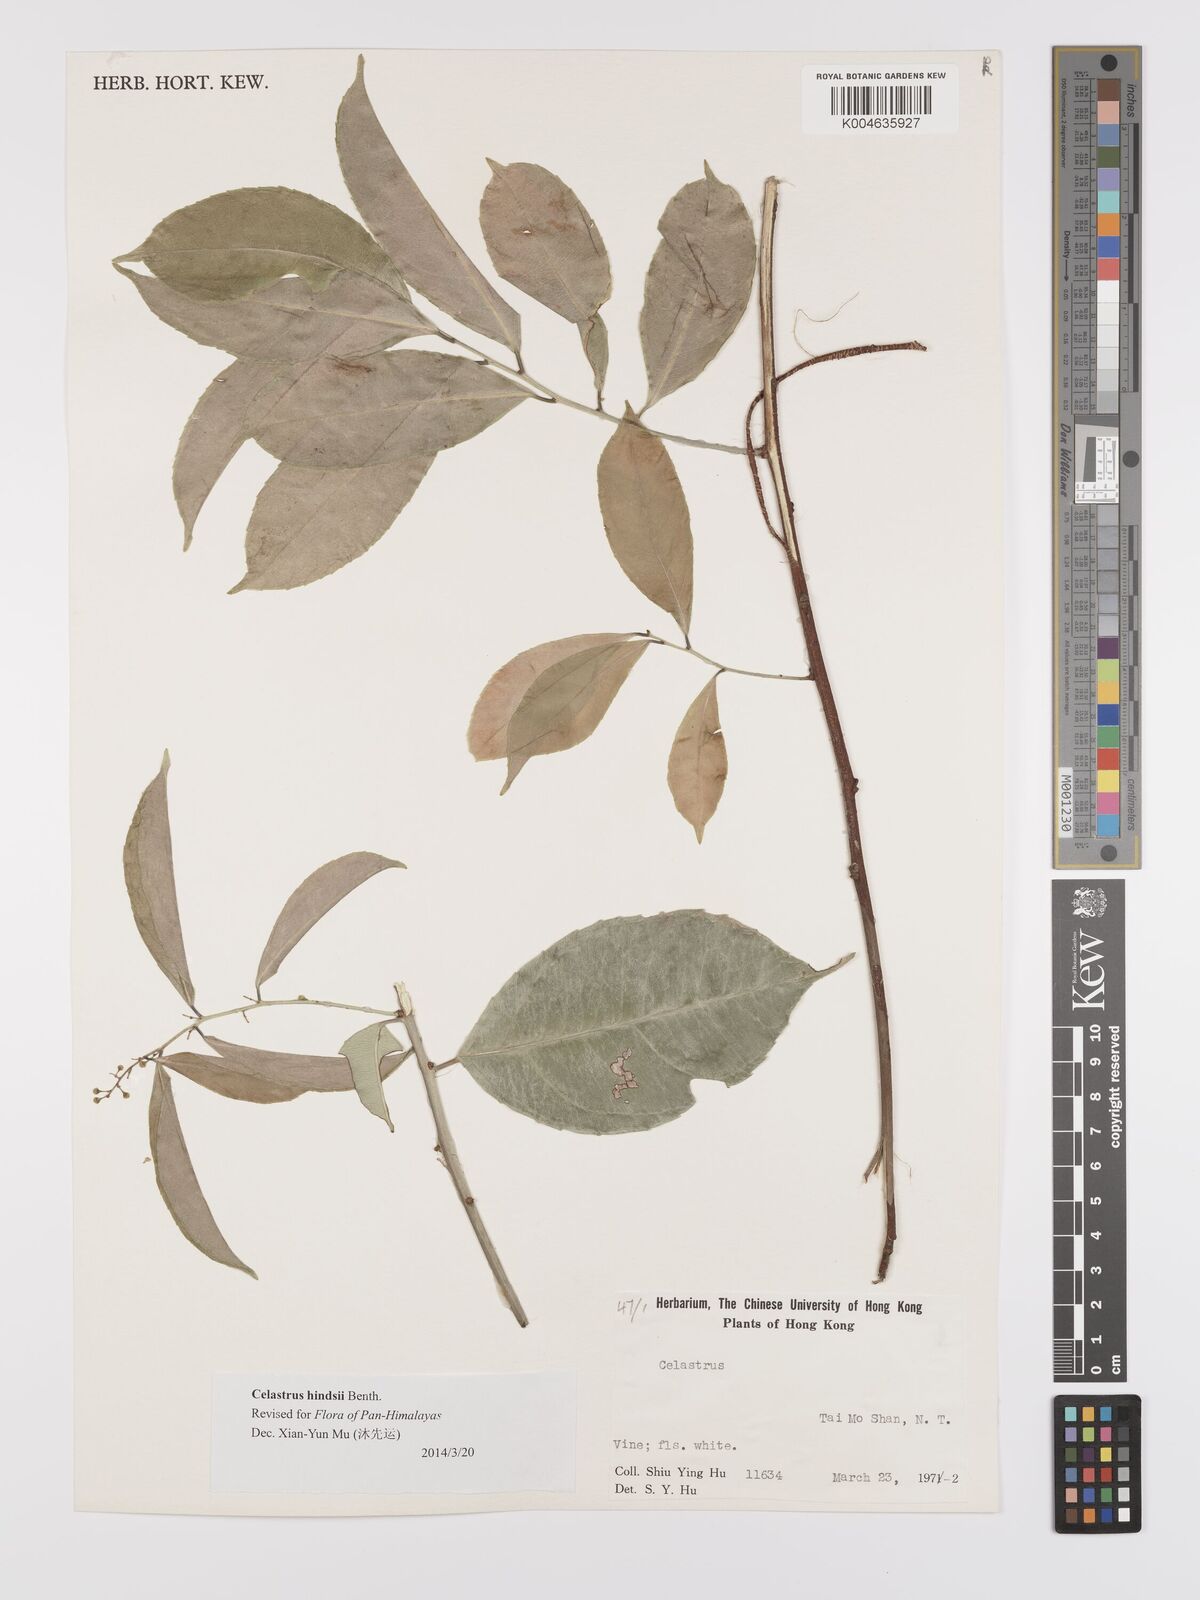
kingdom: Plantae
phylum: Tracheophyta
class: Magnoliopsida
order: Celastrales
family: Celastraceae
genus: Celastrus
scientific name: Celastrus hindsii
